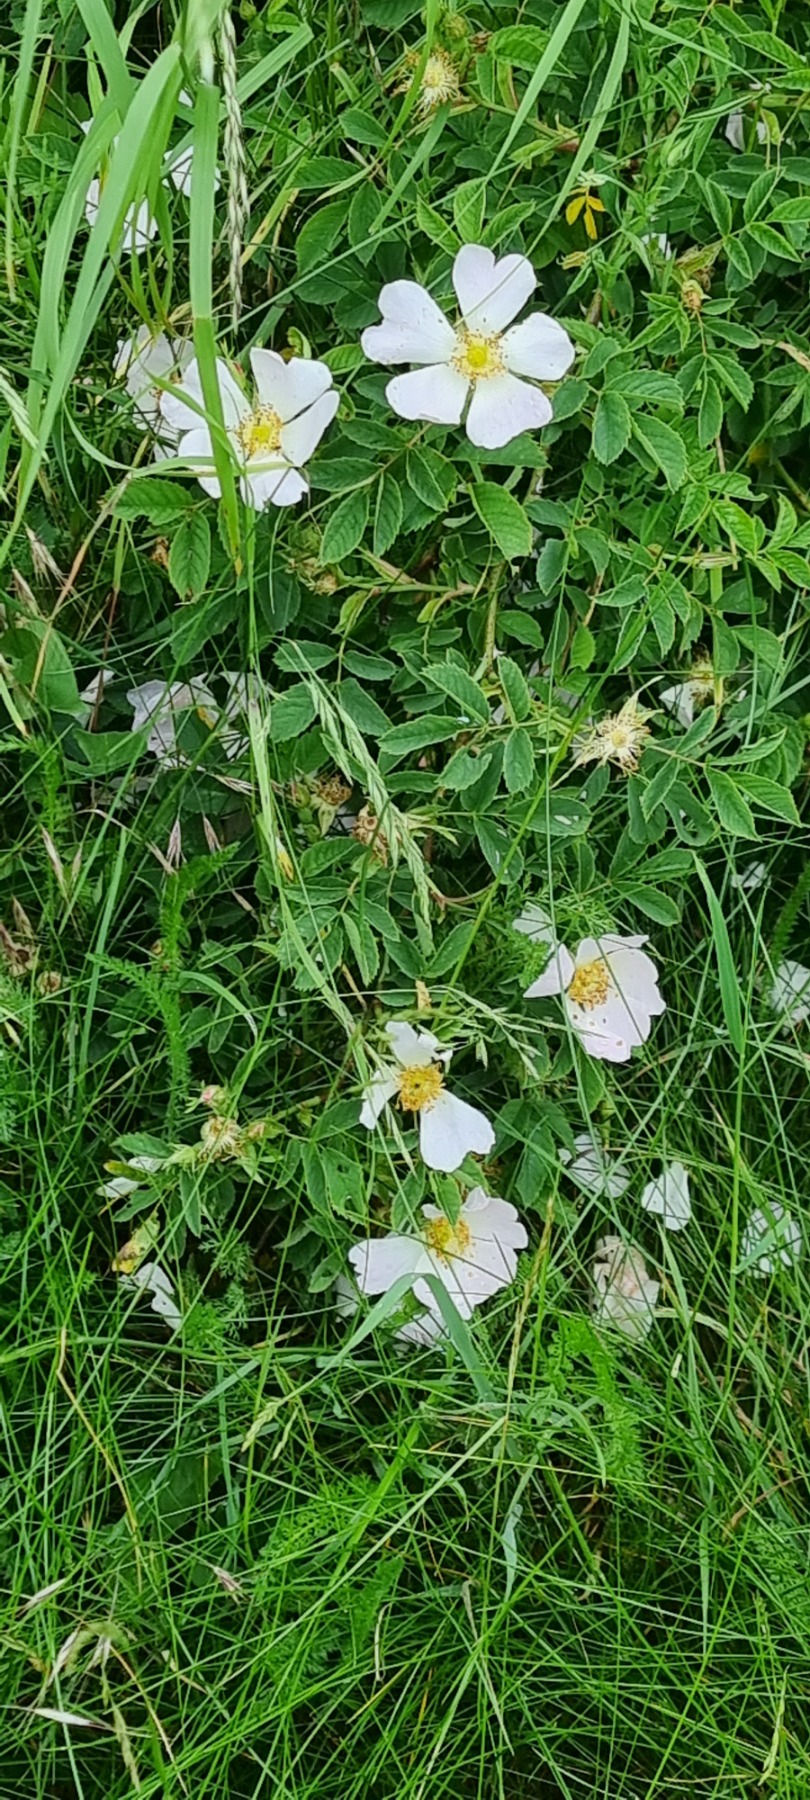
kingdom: Plantae
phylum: Tracheophyta
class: Magnoliopsida
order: Rosales
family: Rosaceae
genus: Rosa
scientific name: Rosa canina
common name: Hunde-rose
